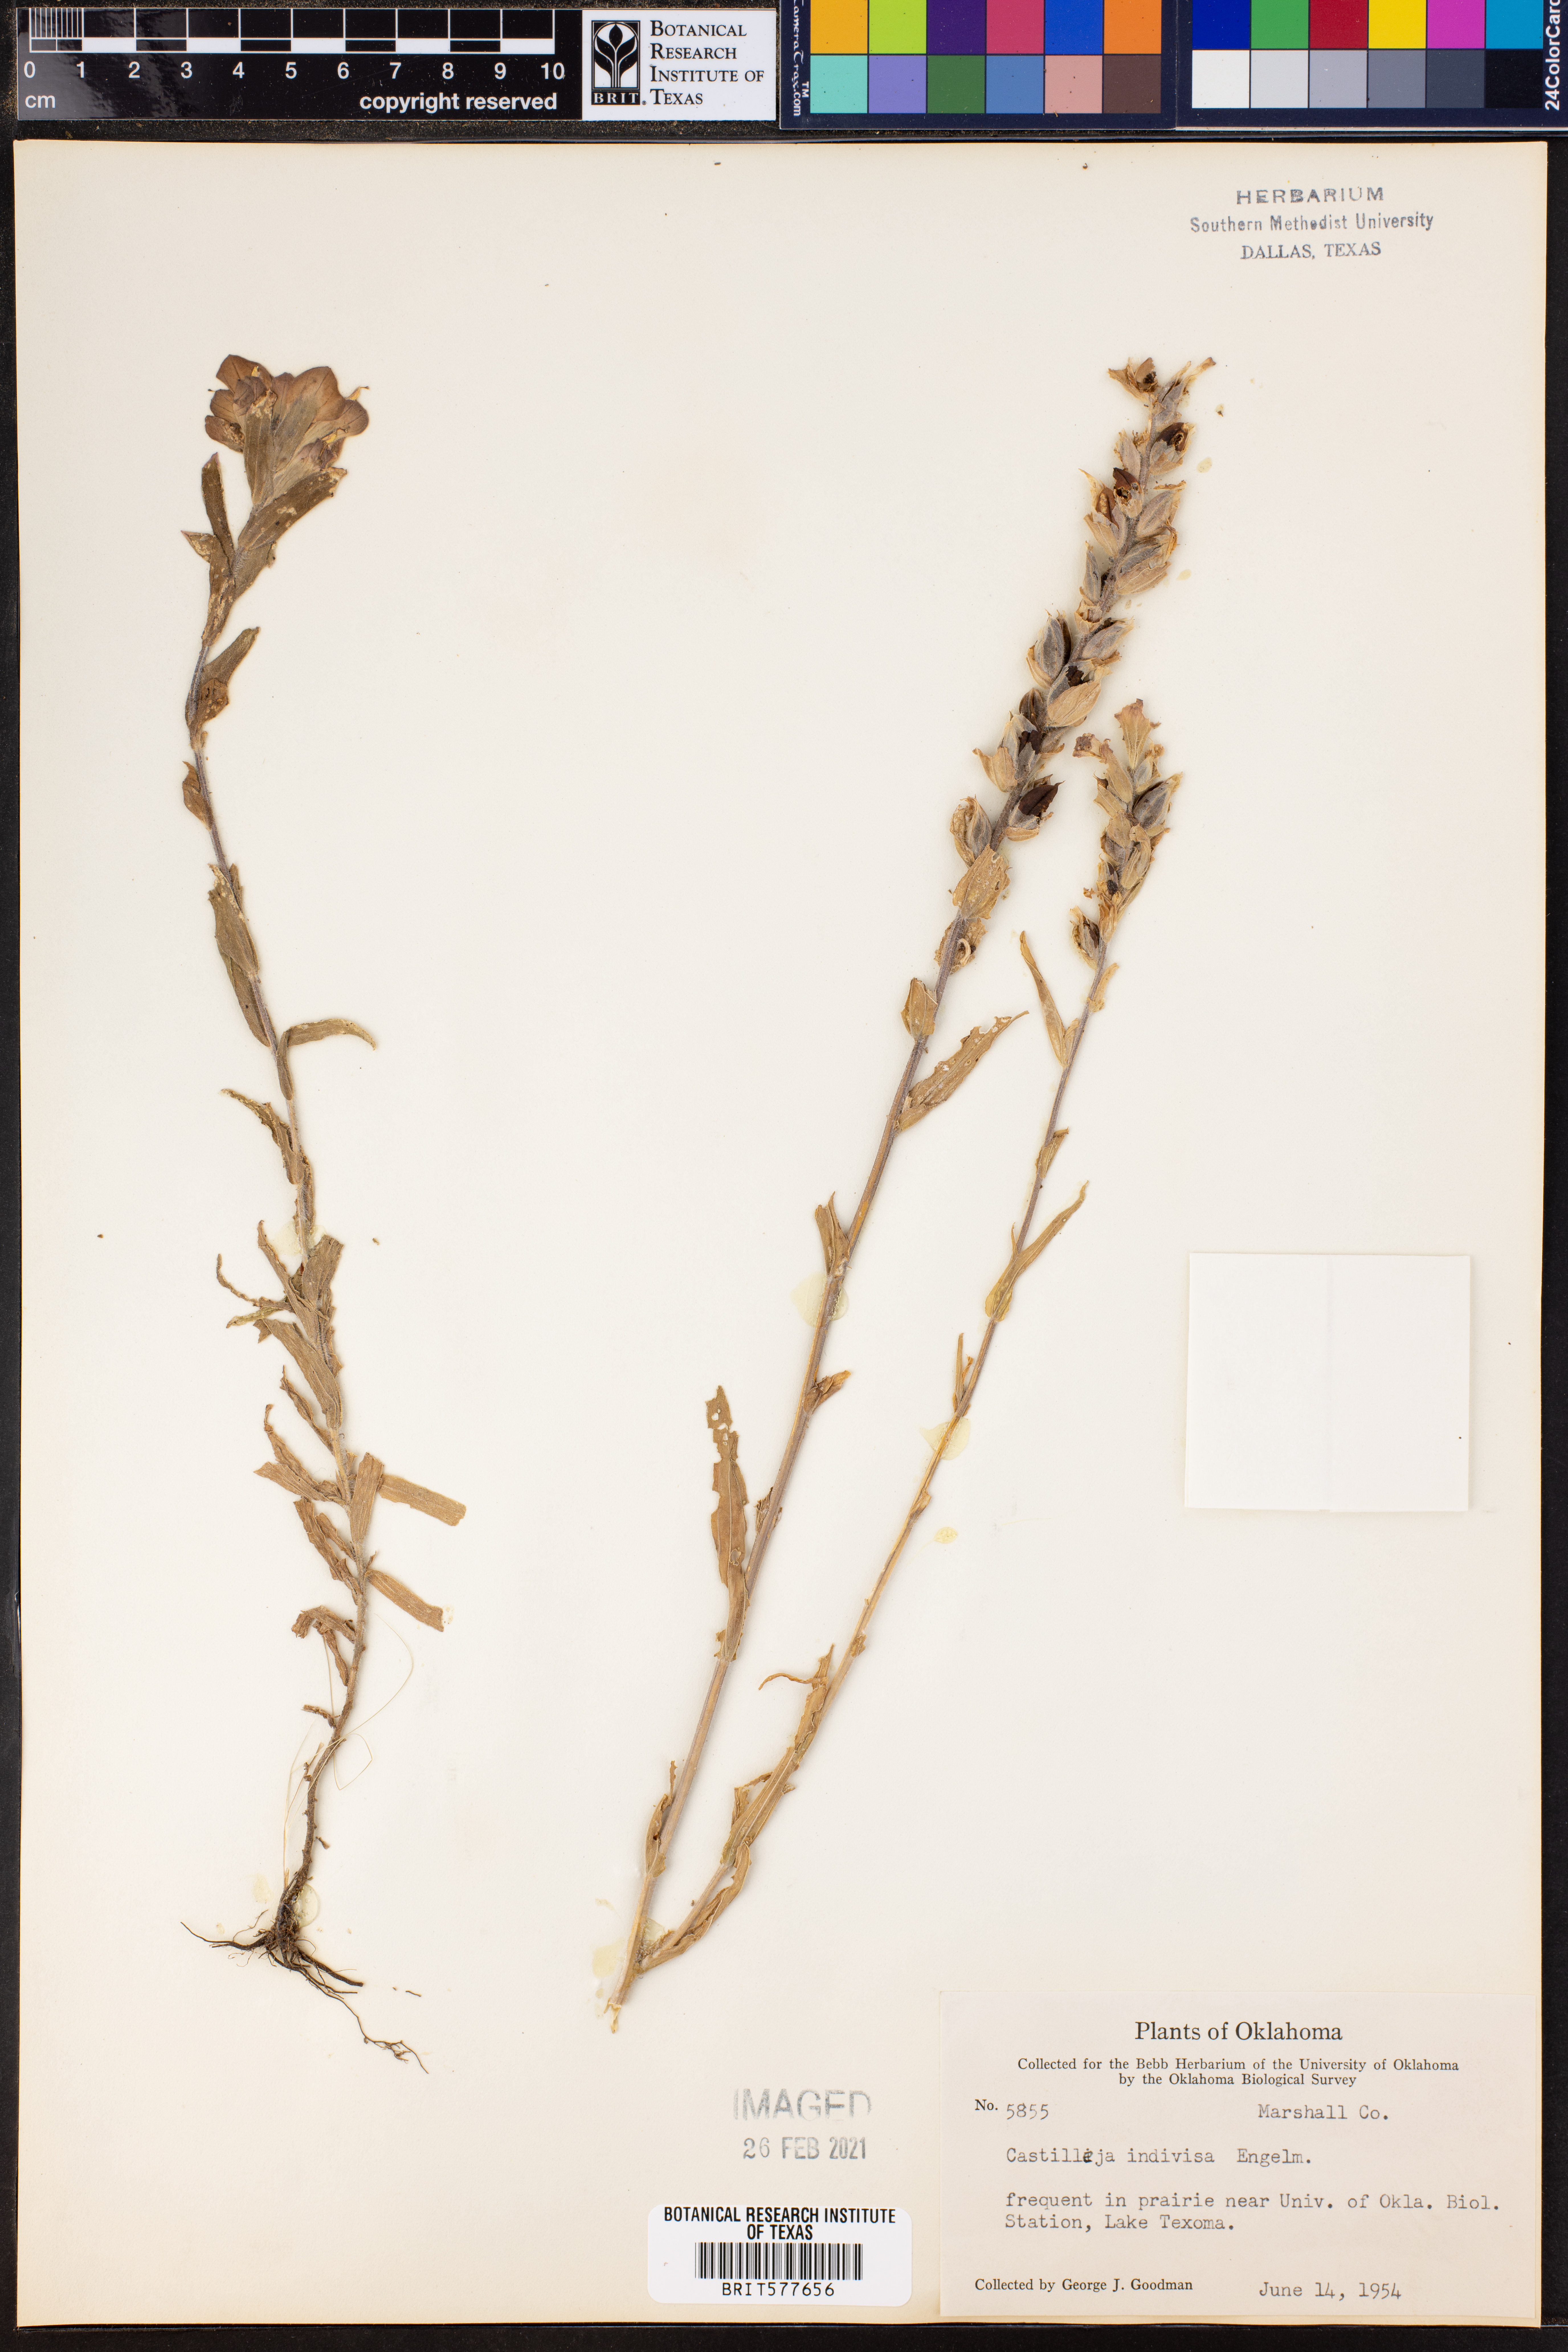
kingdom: Plantae
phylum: Tracheophyta
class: Magnoliopsida
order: Lamiales
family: Orobanchaceae
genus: Castilleja
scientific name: Castilleja indivisa
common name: Texas paintbrush
